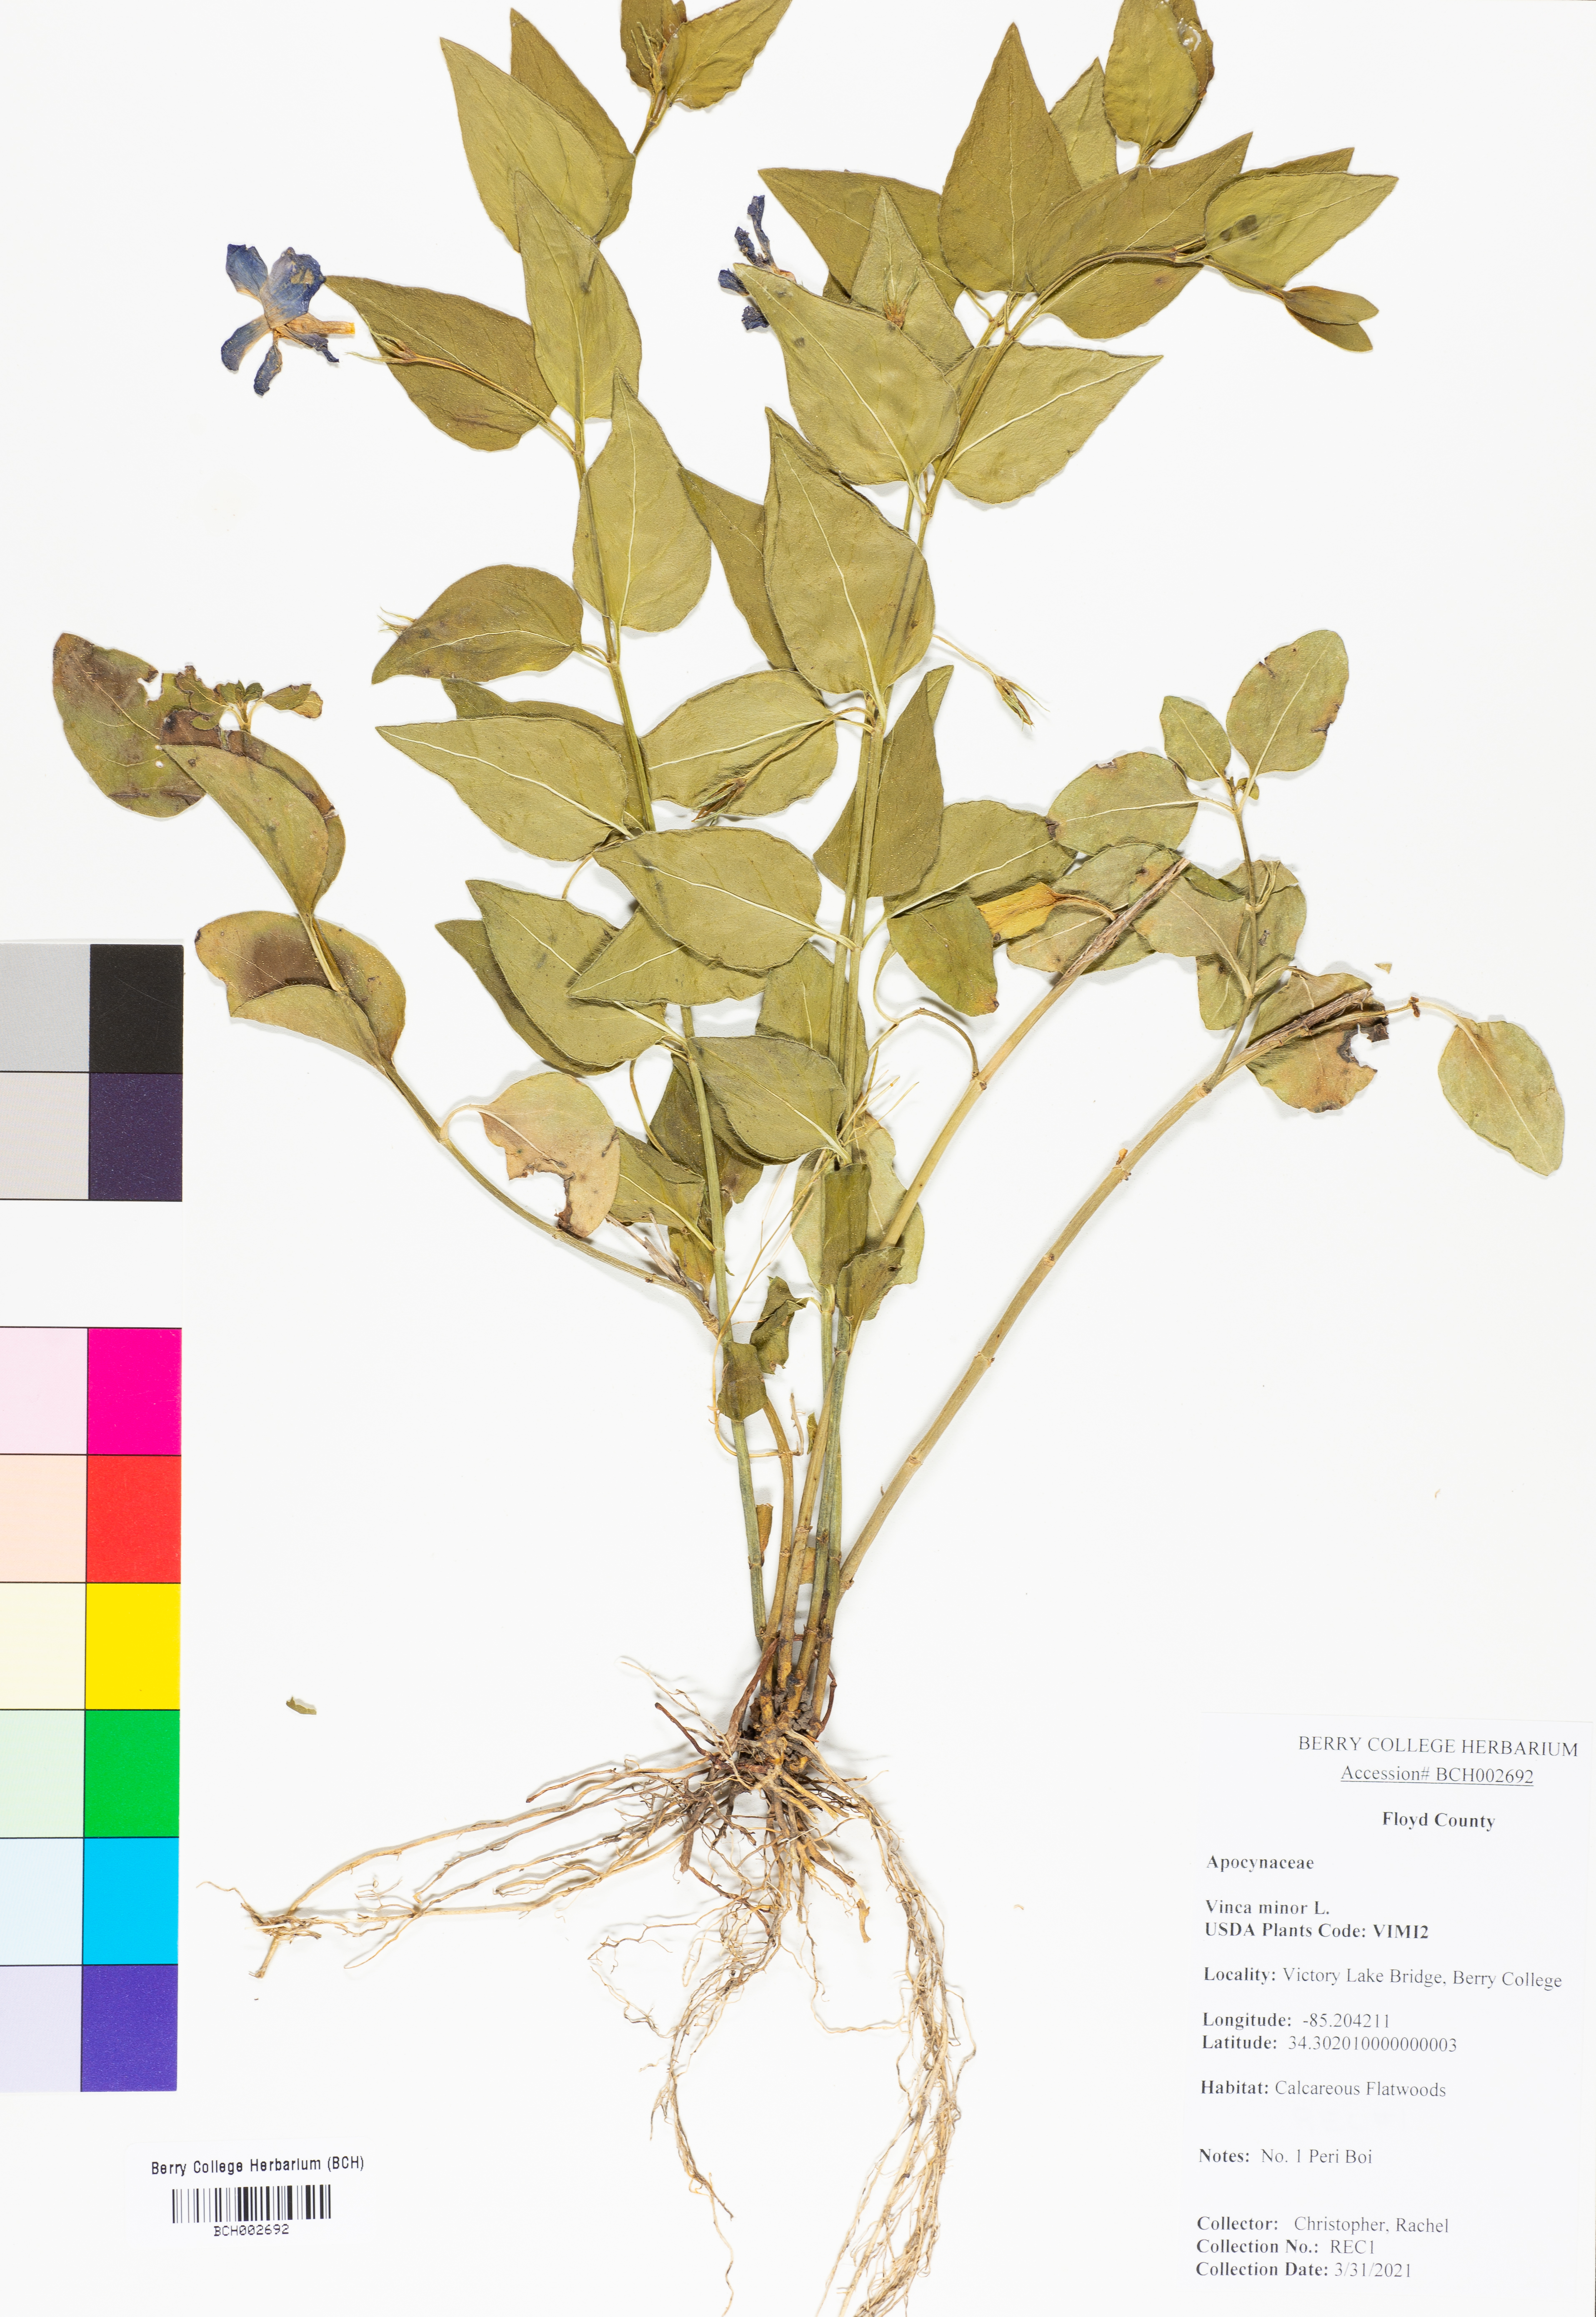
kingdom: Plantae
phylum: Tracheophyta
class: Magnoliopsida
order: Gentianales
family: Apocynaceae
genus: Vinca
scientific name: Vinca minor
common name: Lesser periwinkle
